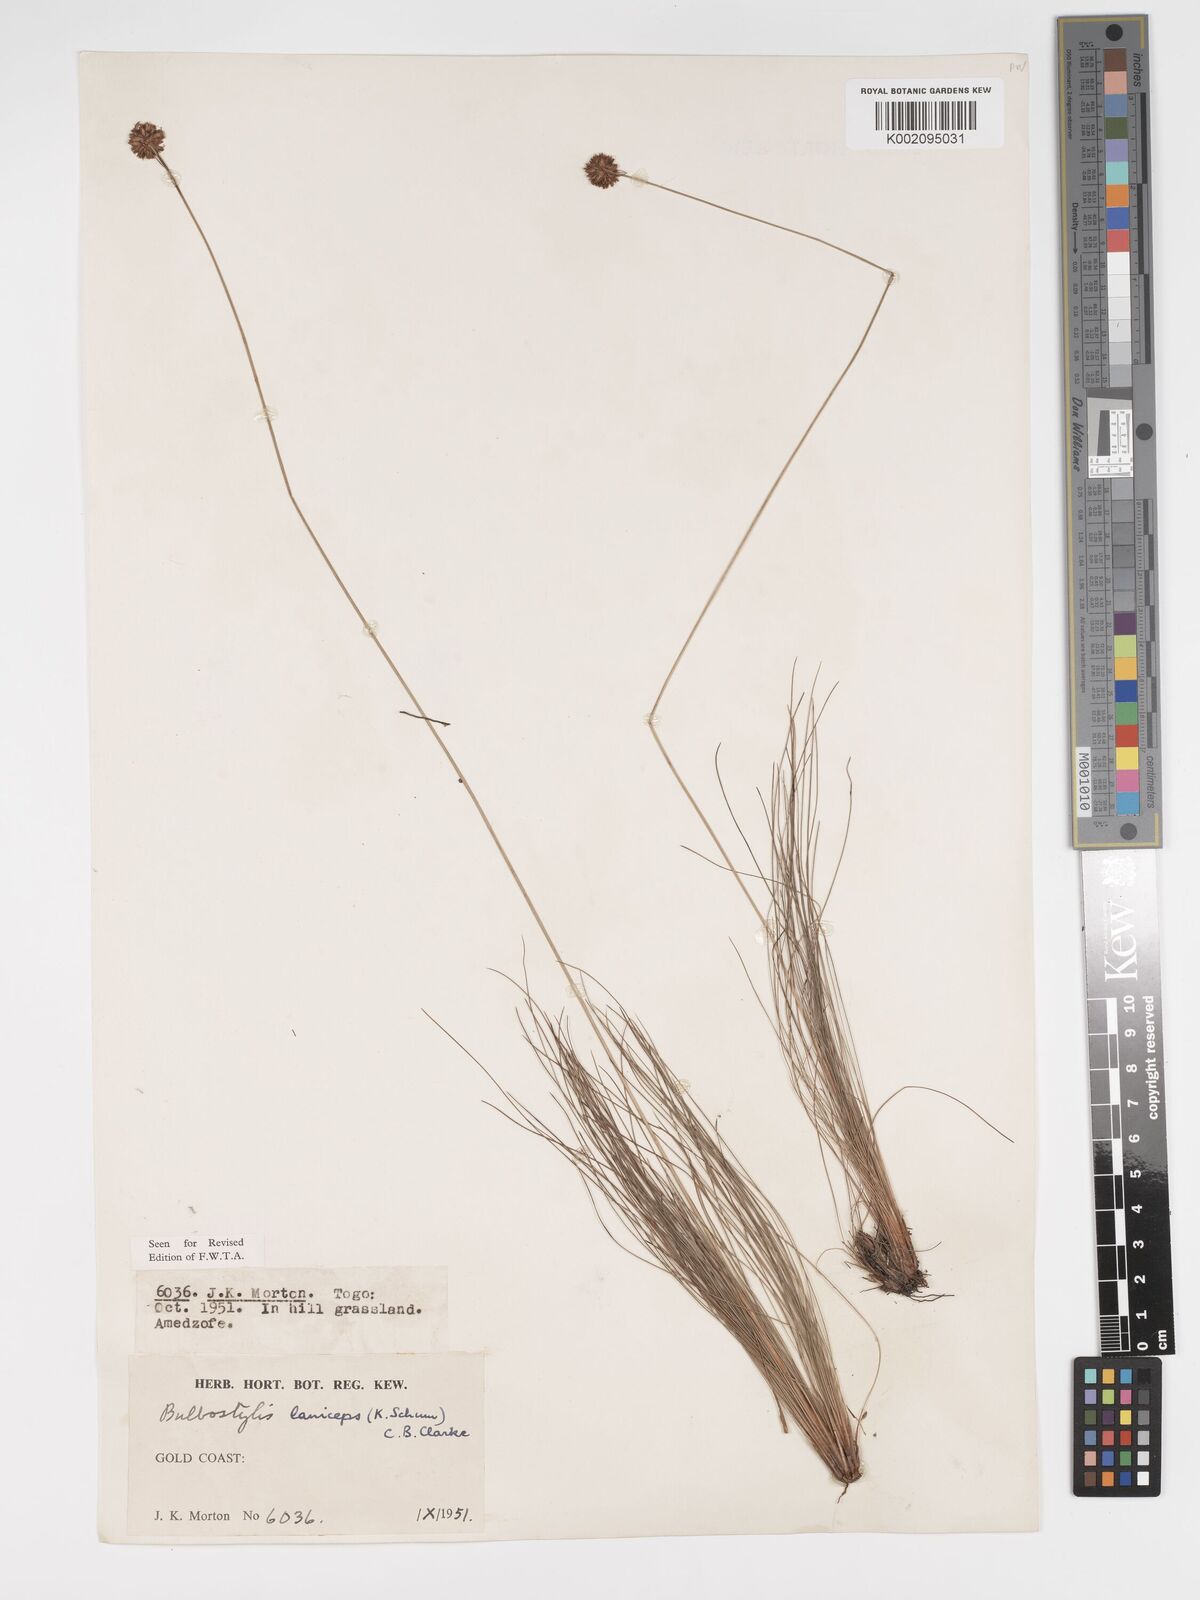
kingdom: Plantae
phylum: Tracheophyta
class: Liliopsida
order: Poales
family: Cyperaceae
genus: Bulbostylis
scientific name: Bulbostylis laniceps
